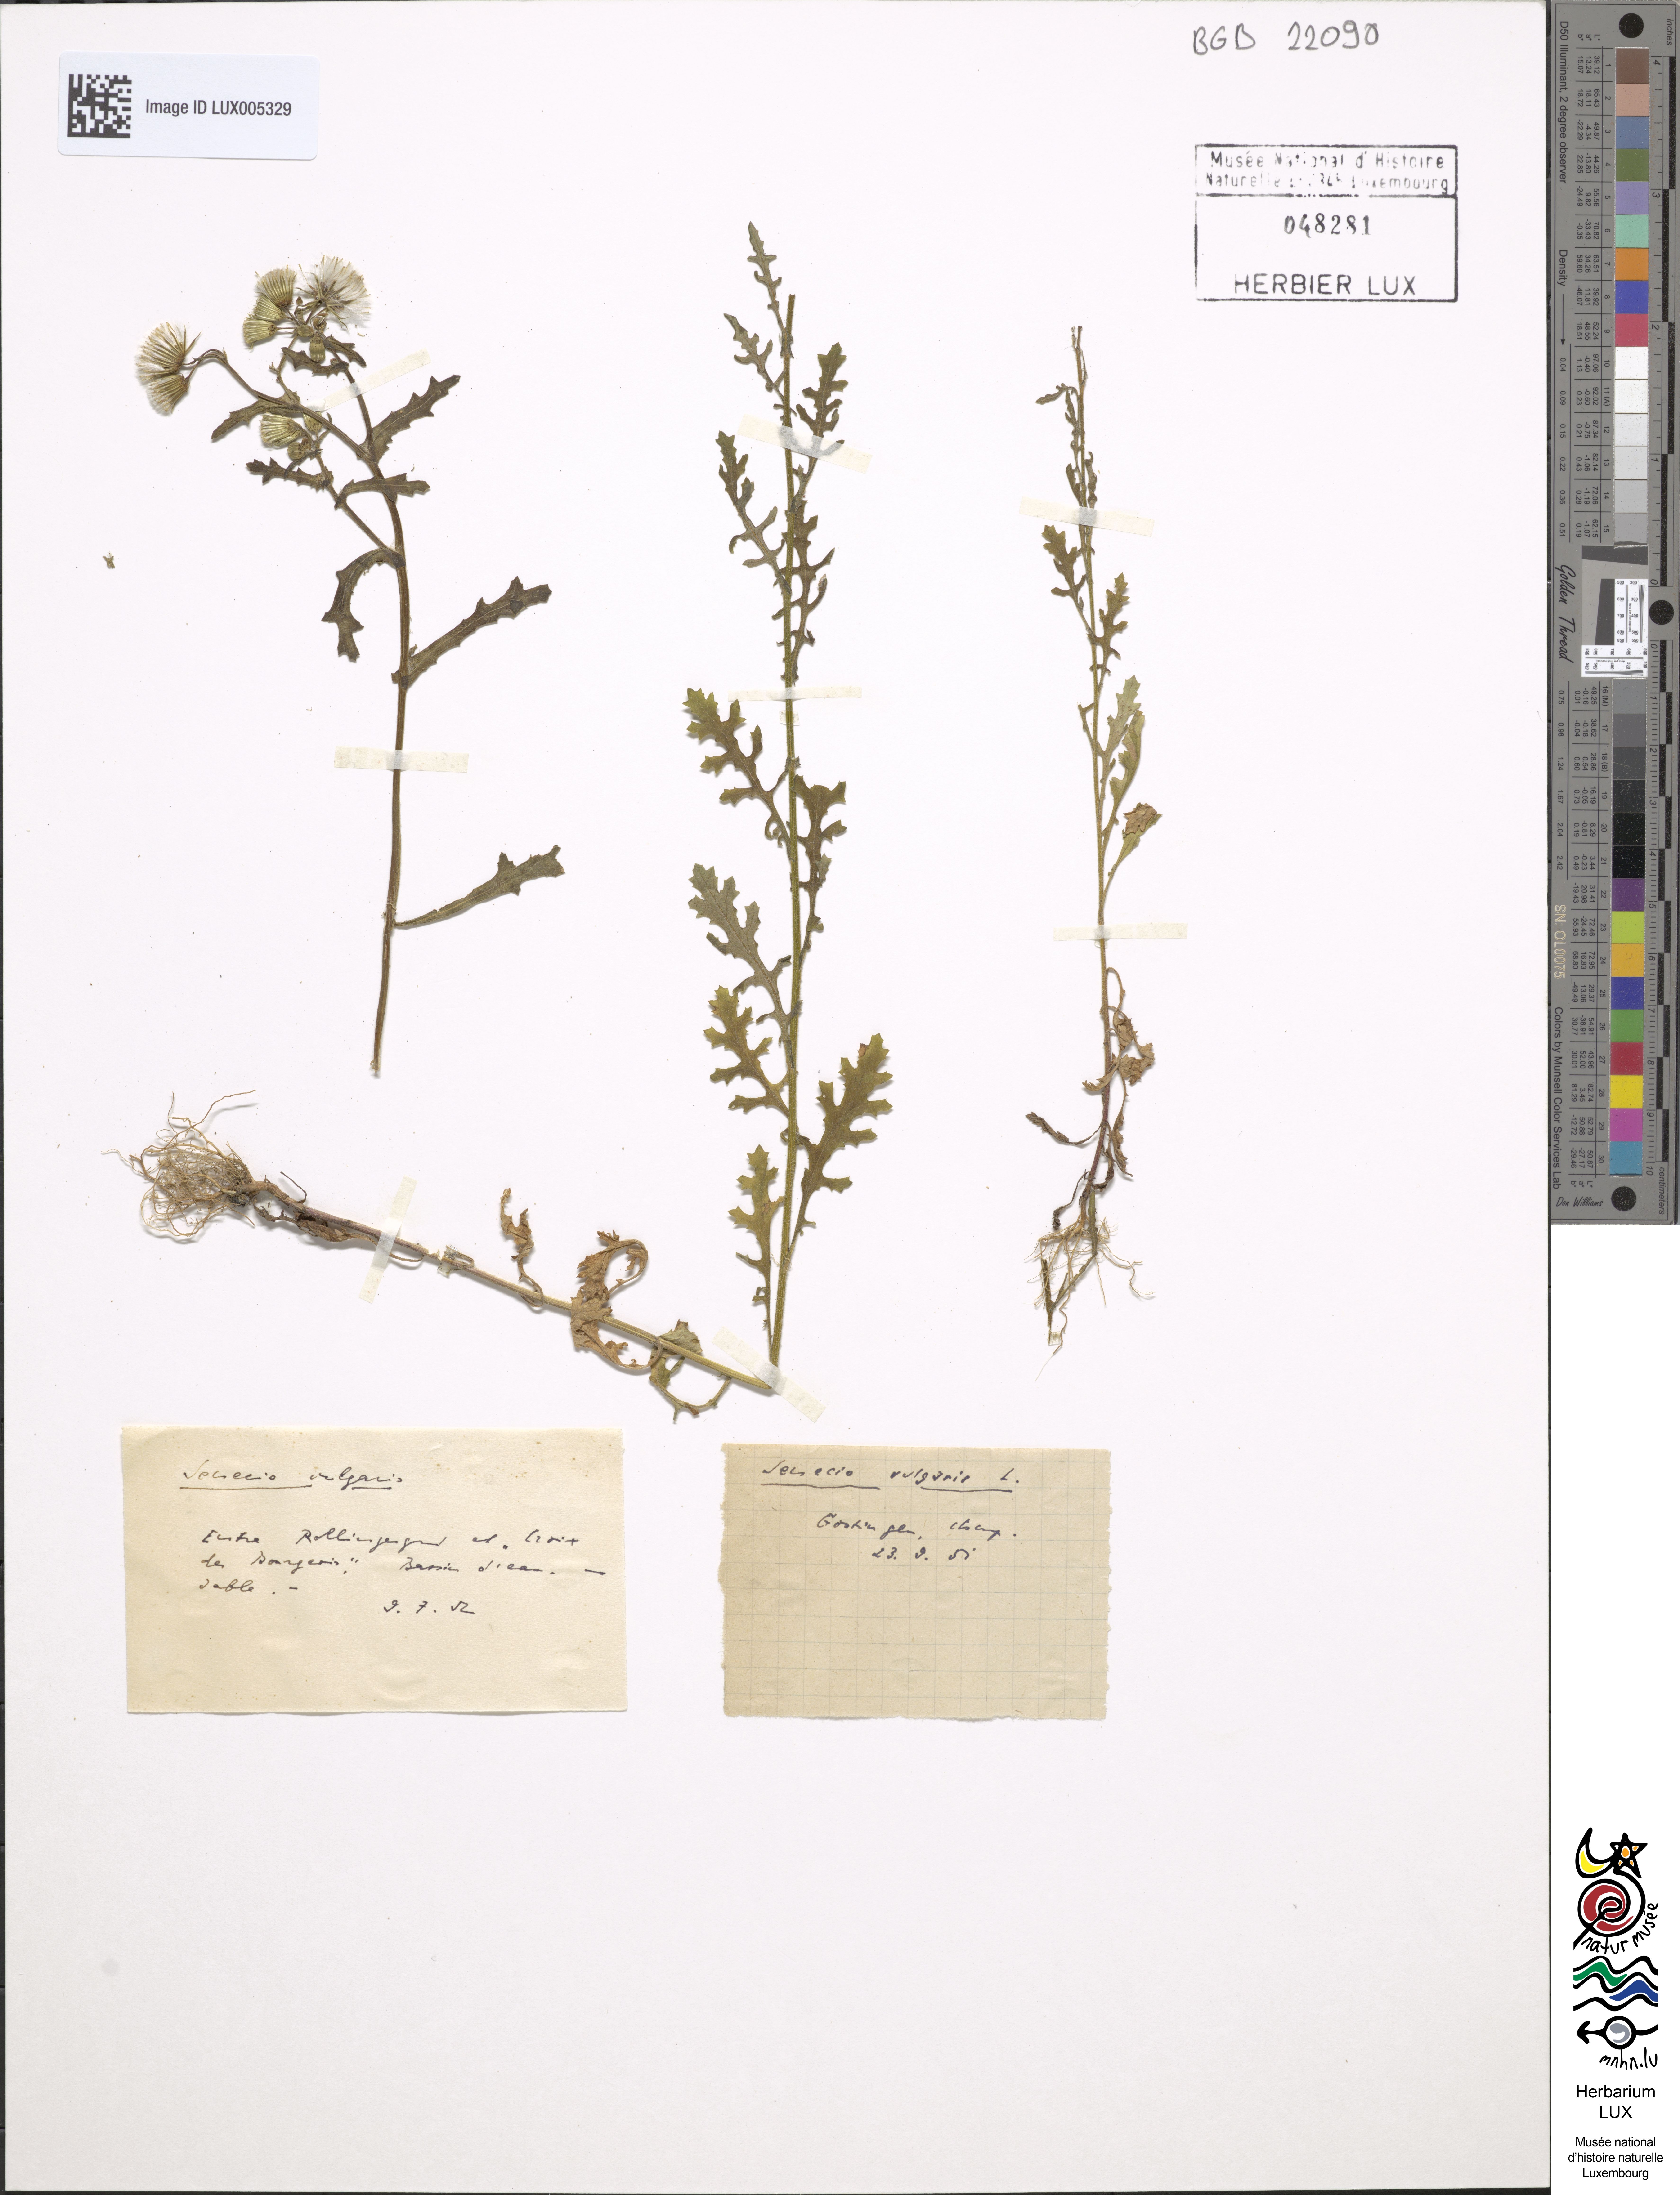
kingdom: Plantae
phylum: Tracheophyta
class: Magnoliopsida
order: Asterales
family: Asteraceae
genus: Senecio
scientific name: Senecio vulgaris
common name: Old-man-in-the-spring
